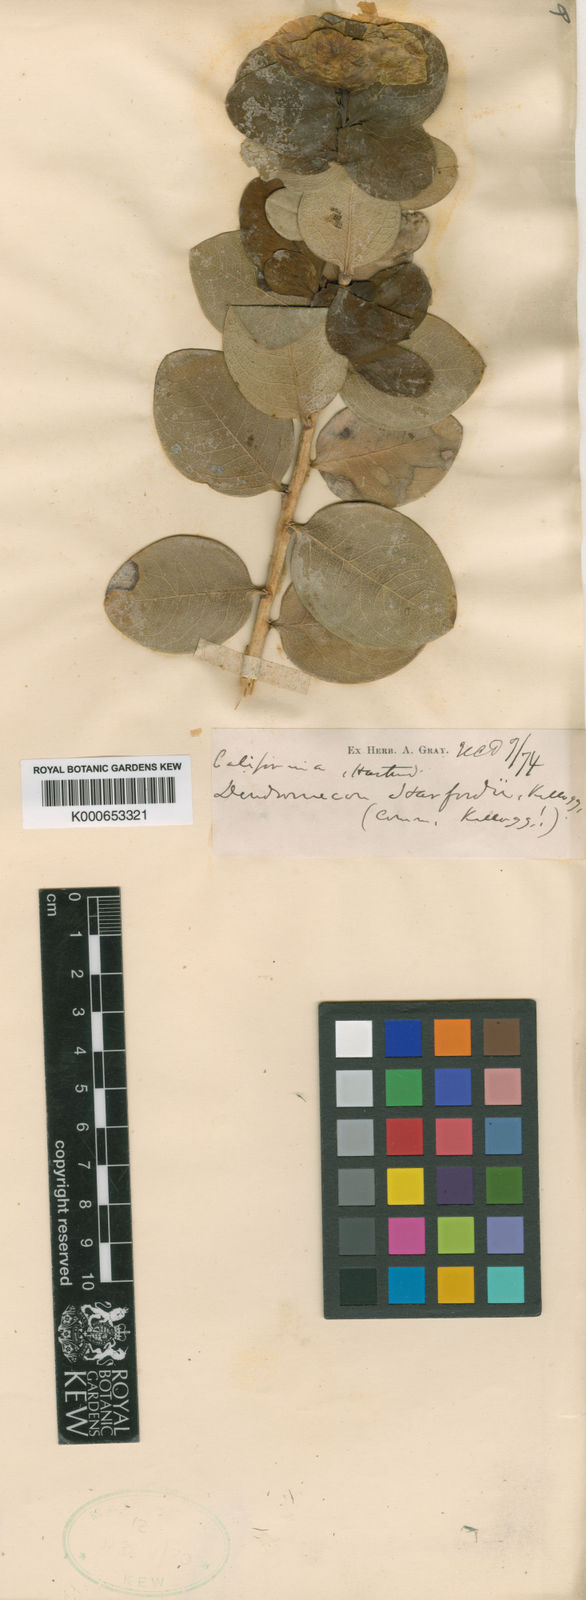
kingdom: Plantae
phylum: Tracheophyta
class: Magnoliopsida
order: Ranunculales
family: Papaveraceae
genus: Dendromecon
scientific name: Dendromecon harfordii
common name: Island tree-poppy
